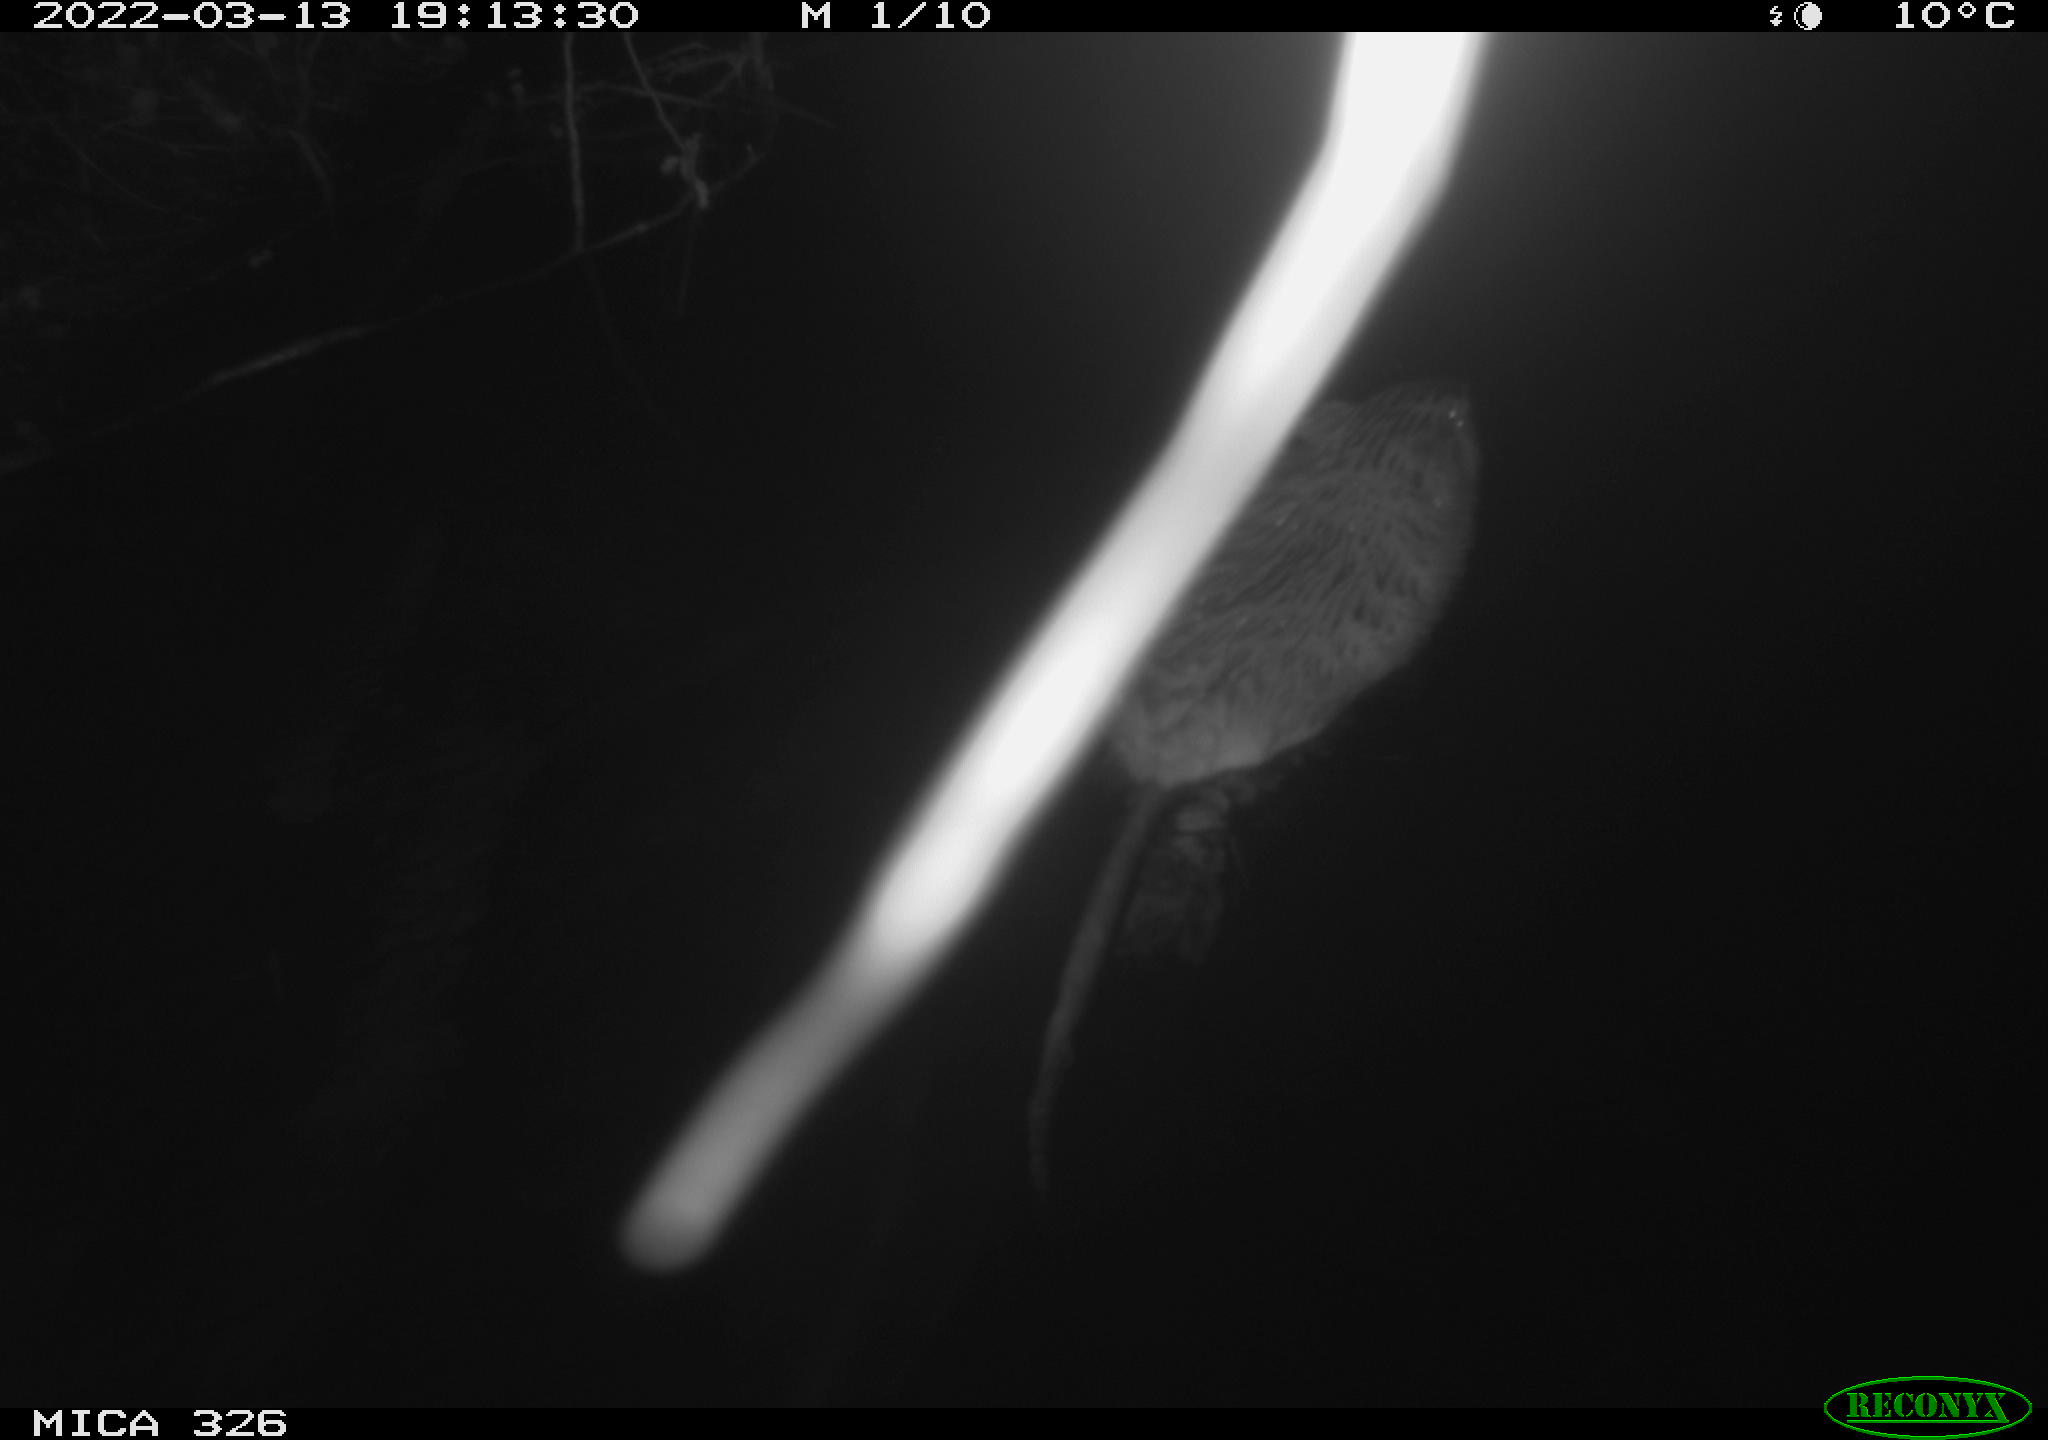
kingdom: Animalia
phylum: Chordata
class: Mammalia
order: Rodentia
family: Cricetidae
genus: Ondatra
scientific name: Ondatra zibethicus
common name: Muskrat
